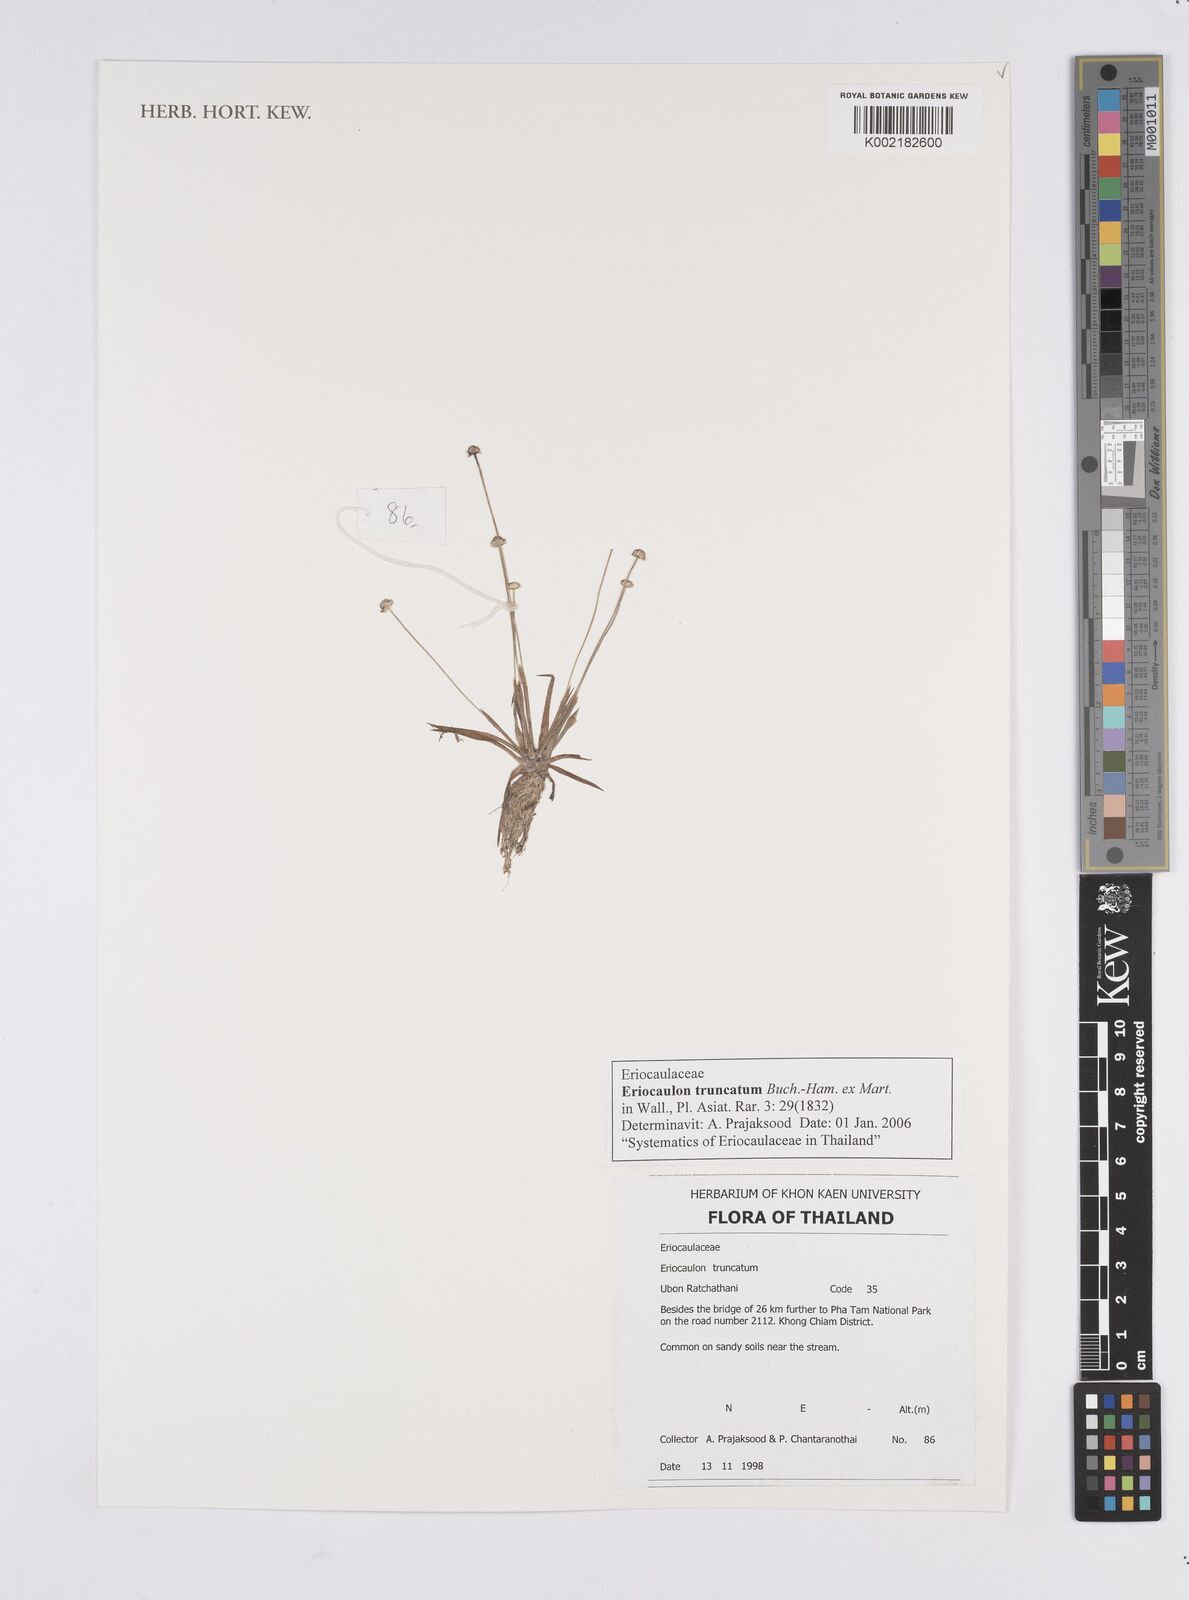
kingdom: Plantae
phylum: Tracheophyta
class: Liliopsida
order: Poales
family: Eriocaulaceae
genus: Eriocaulon
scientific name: Eriocaulon truncatum
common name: Short pipe-wort
